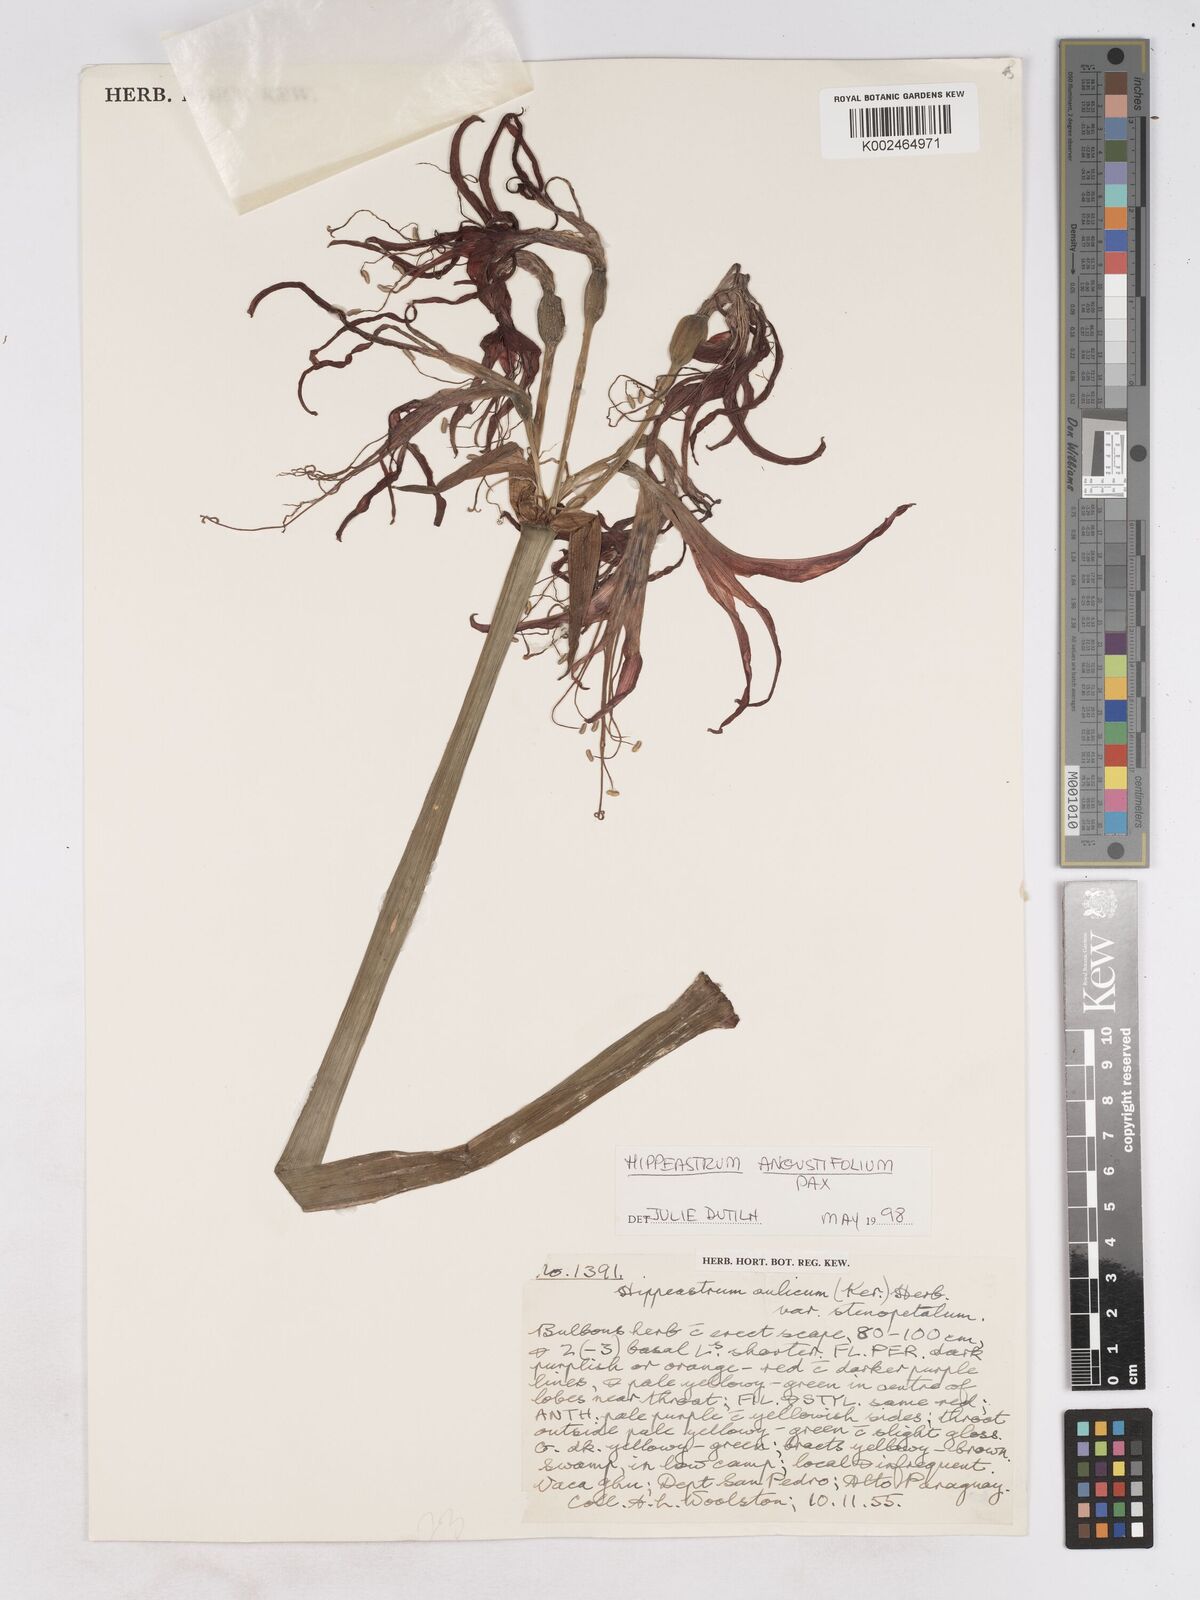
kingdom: Plantae
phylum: Tracheophyta
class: Liliopsida
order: Asparagales
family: Amaryllidaceae
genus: Hippeastrum
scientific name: Hippeastrum angustifolium
